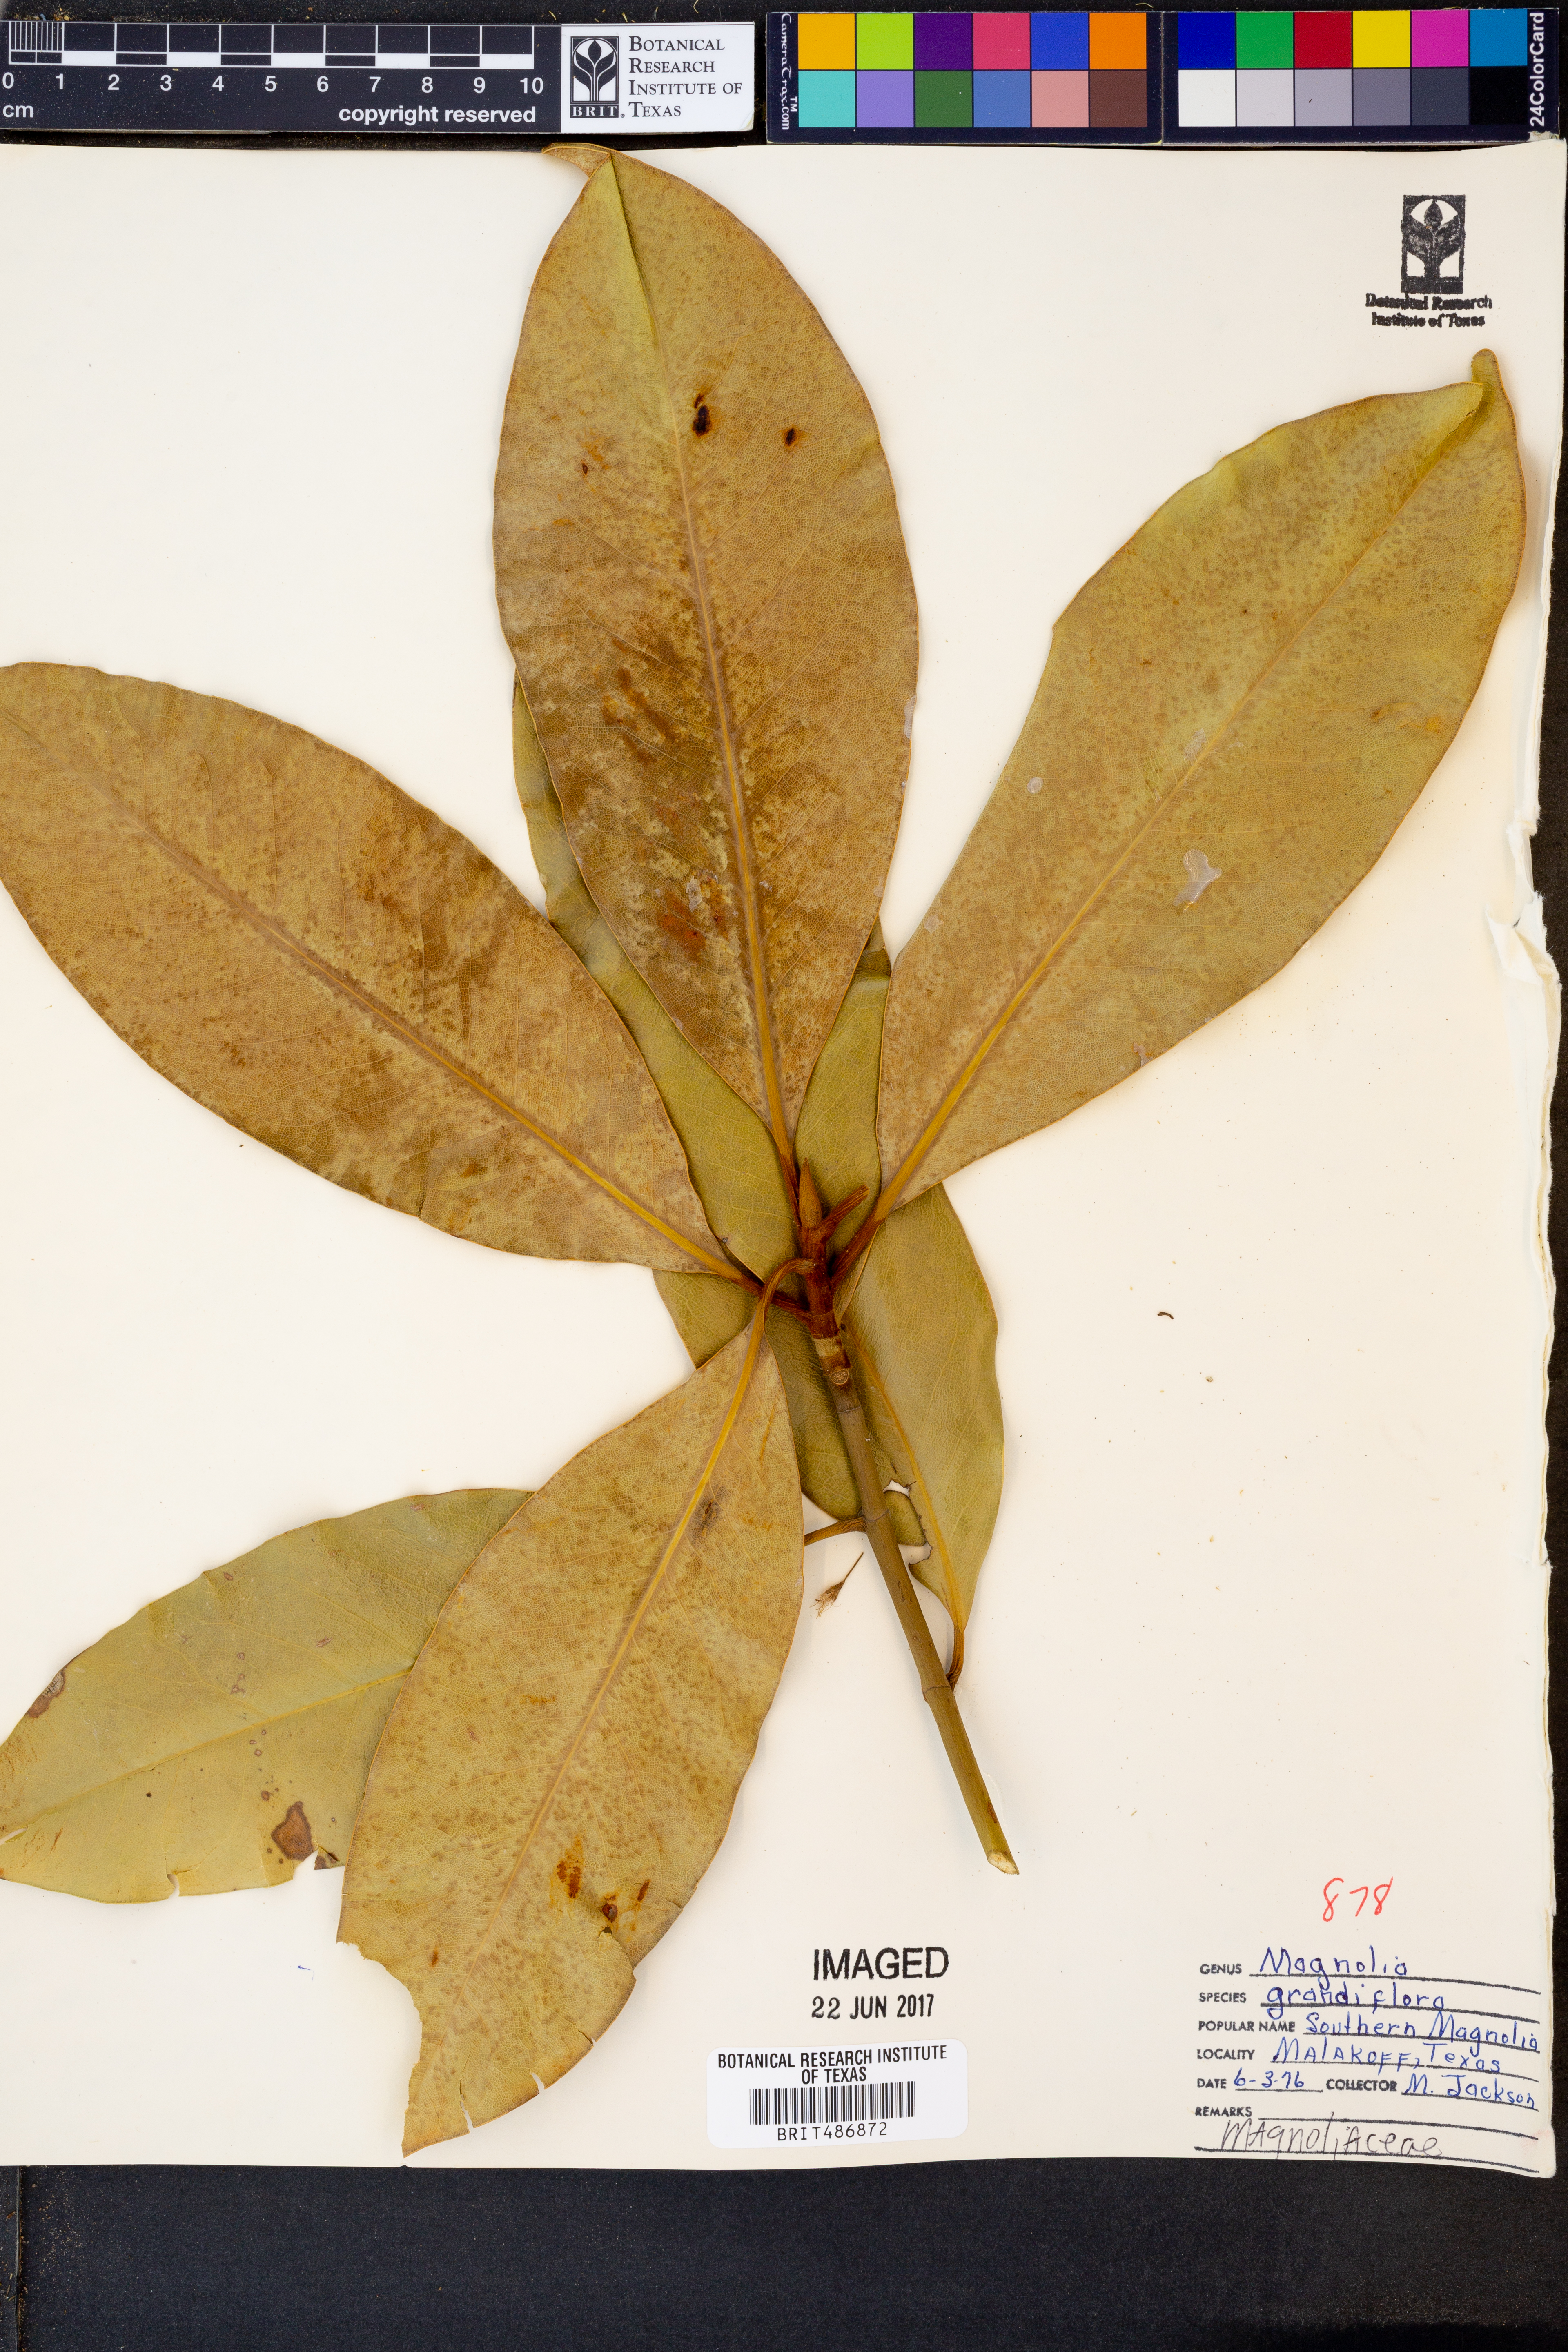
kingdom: Plantae
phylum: Tracheophyta
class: Magnoliopsida
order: Magnoliales
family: Magnoliaceae
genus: Magnolia
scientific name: Magnolia grandiflora
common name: Southern magnolia
